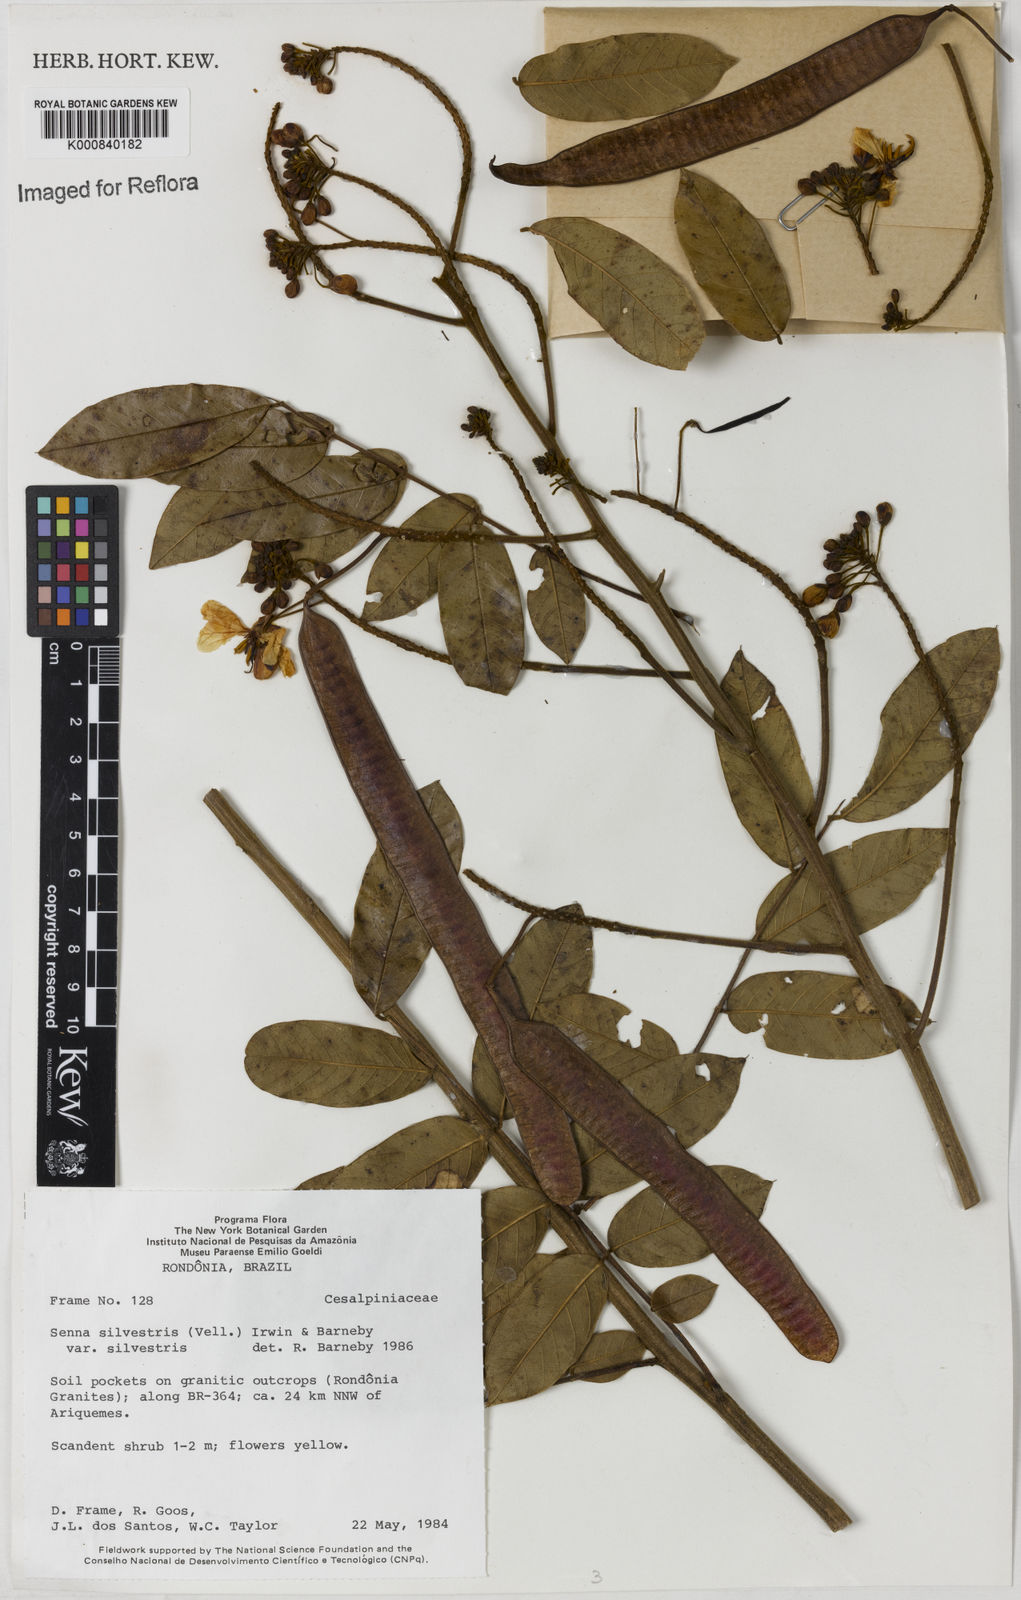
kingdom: Plantae
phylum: Tracheophyta
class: Magnoliopsida
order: Fabales
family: Fabaceae
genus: Senna
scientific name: Senna silvestris
